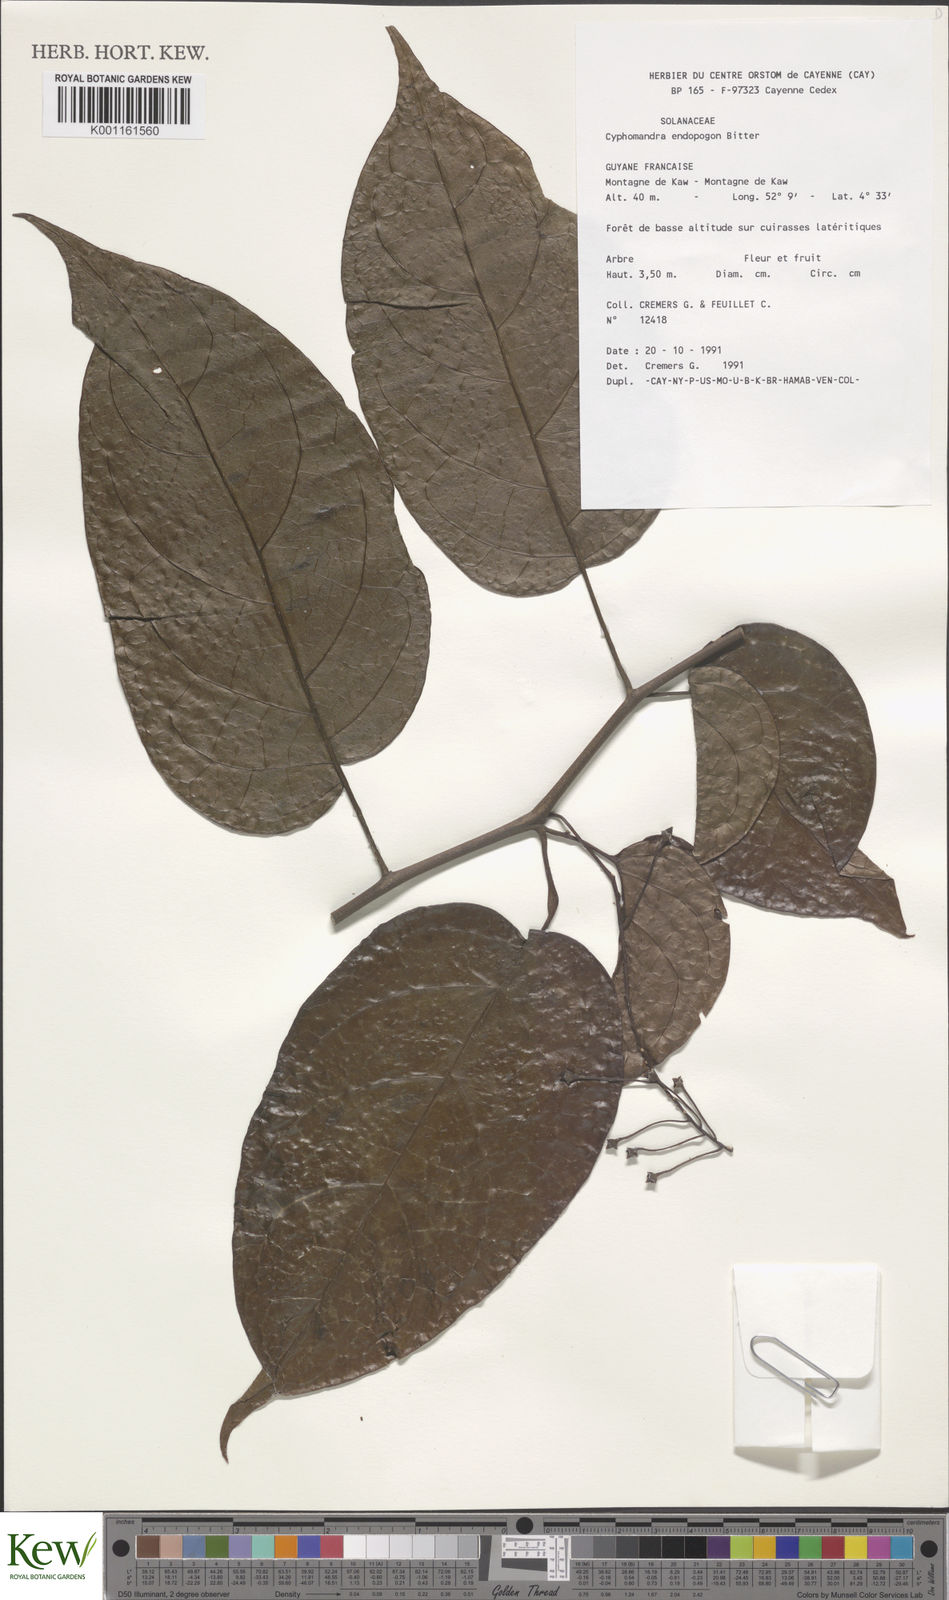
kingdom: Plantae
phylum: Tracheophyta
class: Magnoliopsida
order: Solanales
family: Solanaceae
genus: Solanum
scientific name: Solanum endopogon
